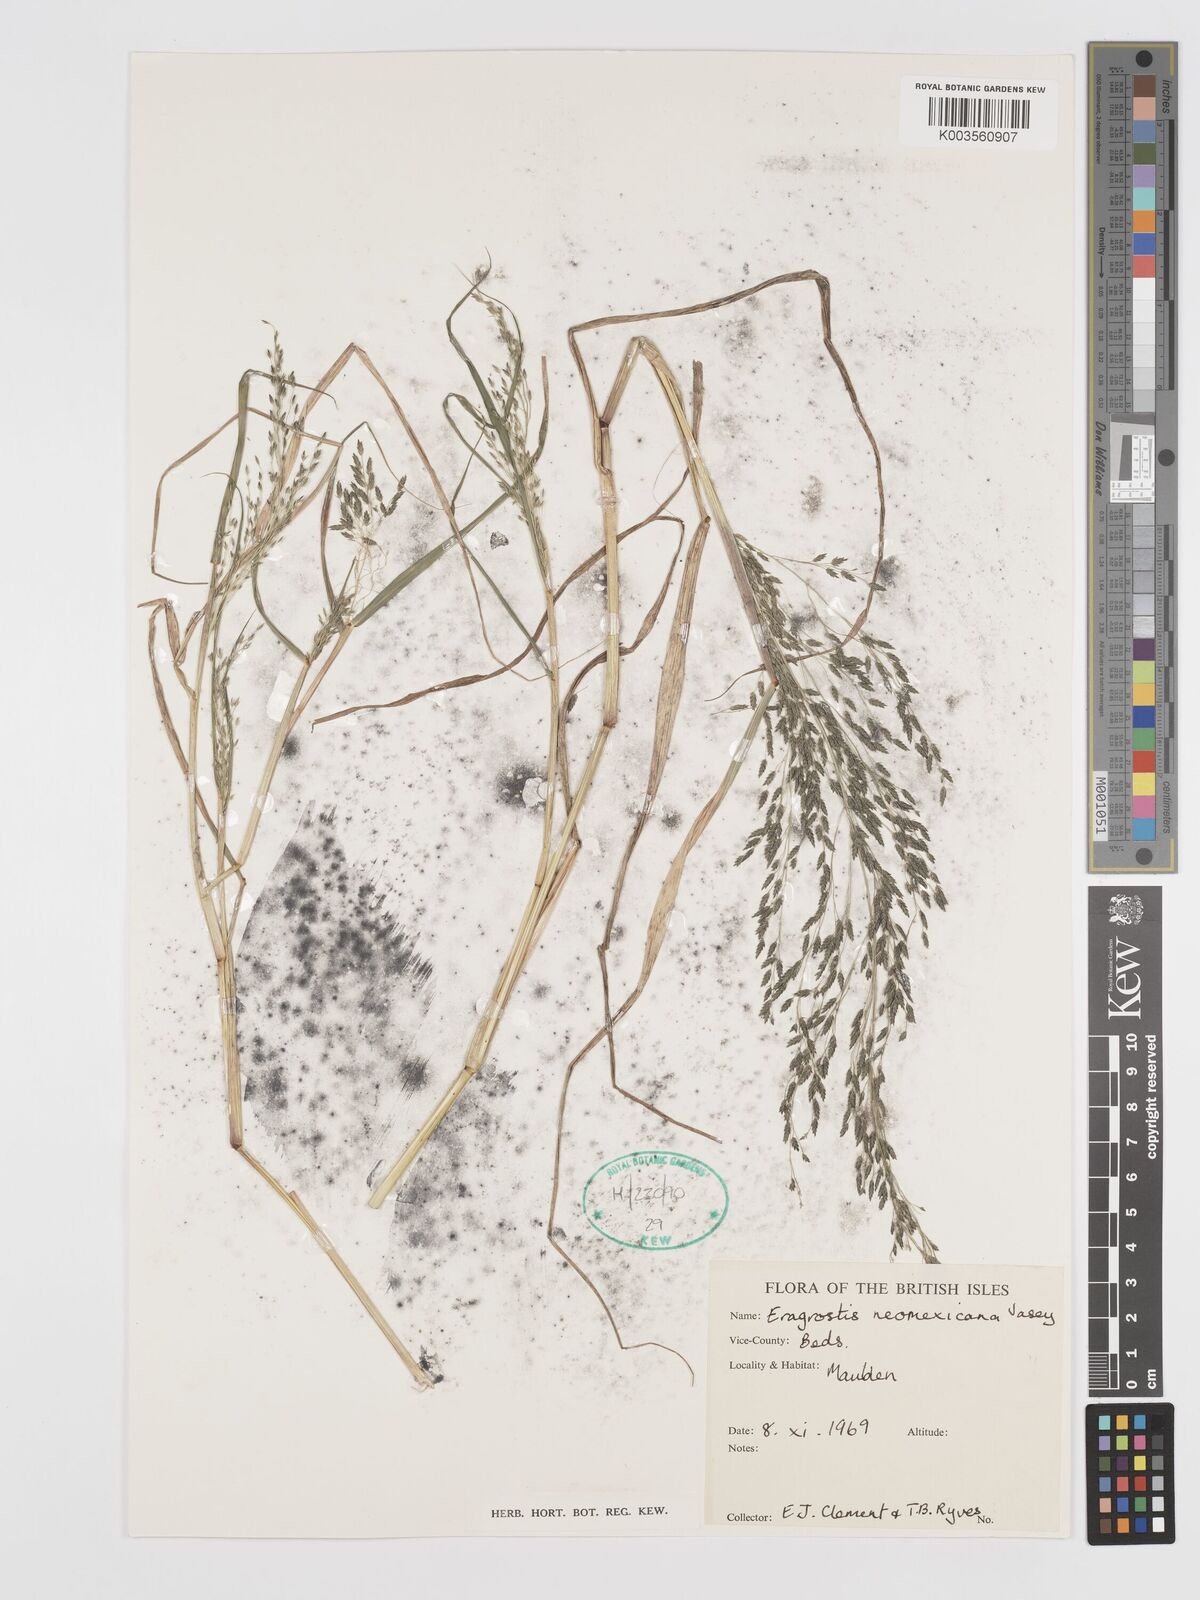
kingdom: Plantae
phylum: Tracheophyta
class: Liliopsida
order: Poales
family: Poaceae
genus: Eragrostis
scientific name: Eragrostis mexicana
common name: Mexican love grass
